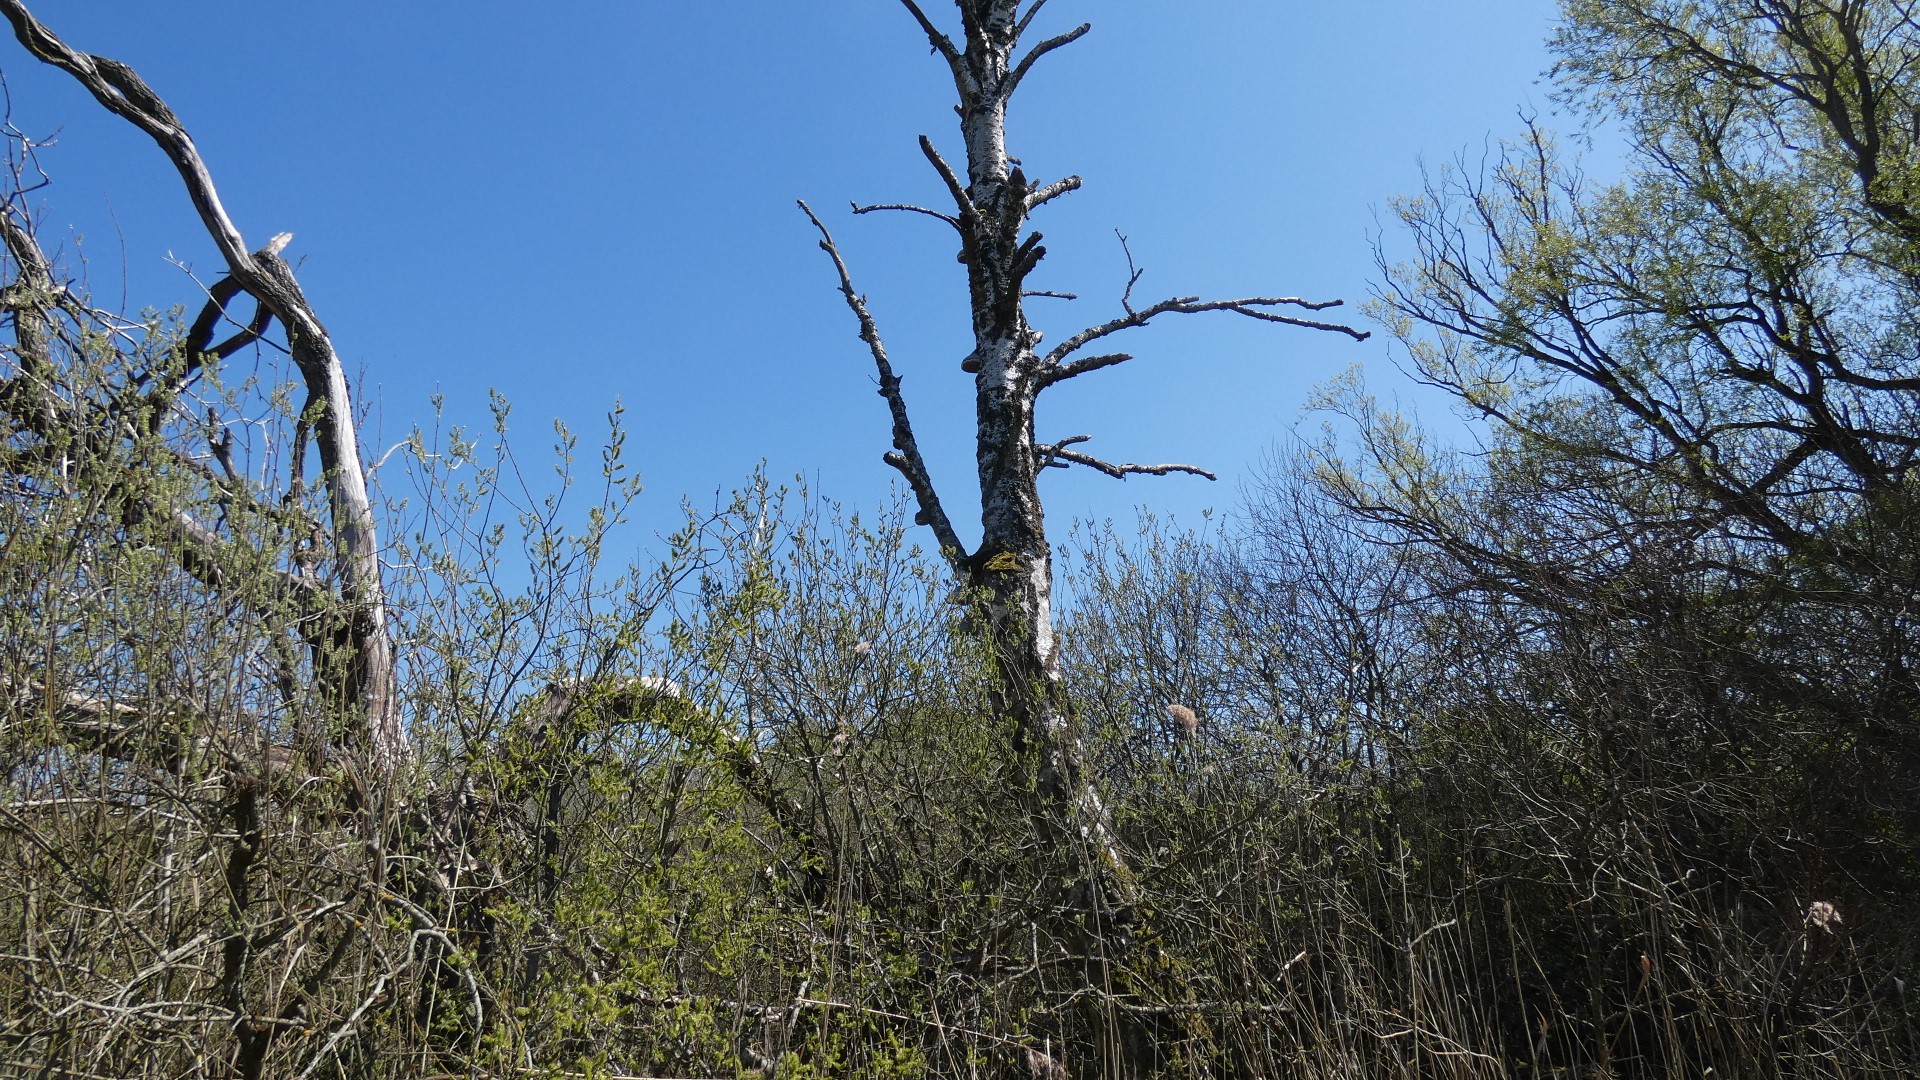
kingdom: Fungi
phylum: Basidiomycota
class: Agaricomycetes
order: Polyporales
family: Polyporaceae
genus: Fomes
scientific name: Fomes fomentarius
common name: Tøndersvamp
